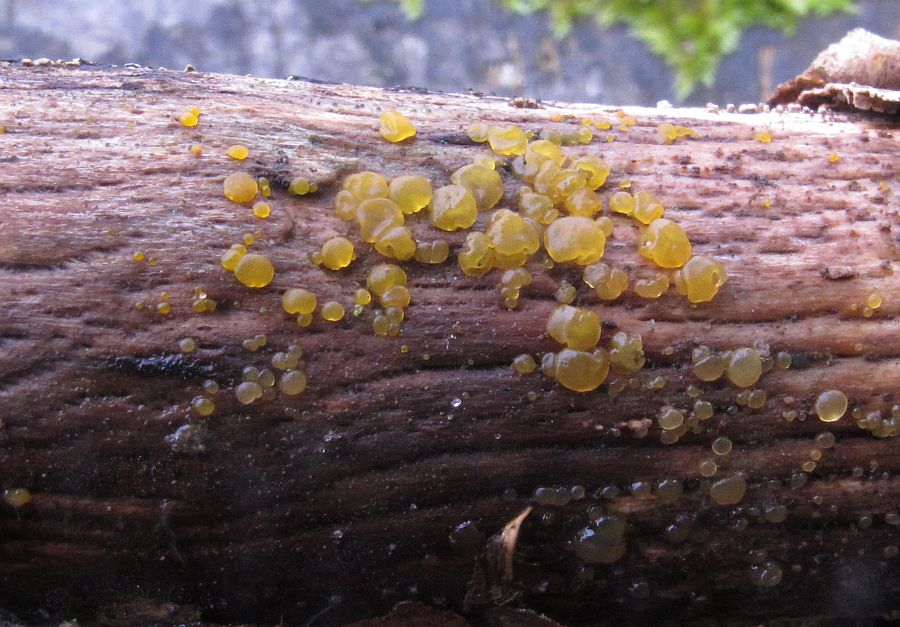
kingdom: Fungi
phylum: Basidiomycota
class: Dacrymycetes
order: Dacrymycetales
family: Dacrymycetaceae
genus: Dacrymyces
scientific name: Dacrymyces lacrymalis
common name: rynket tåresvamp
